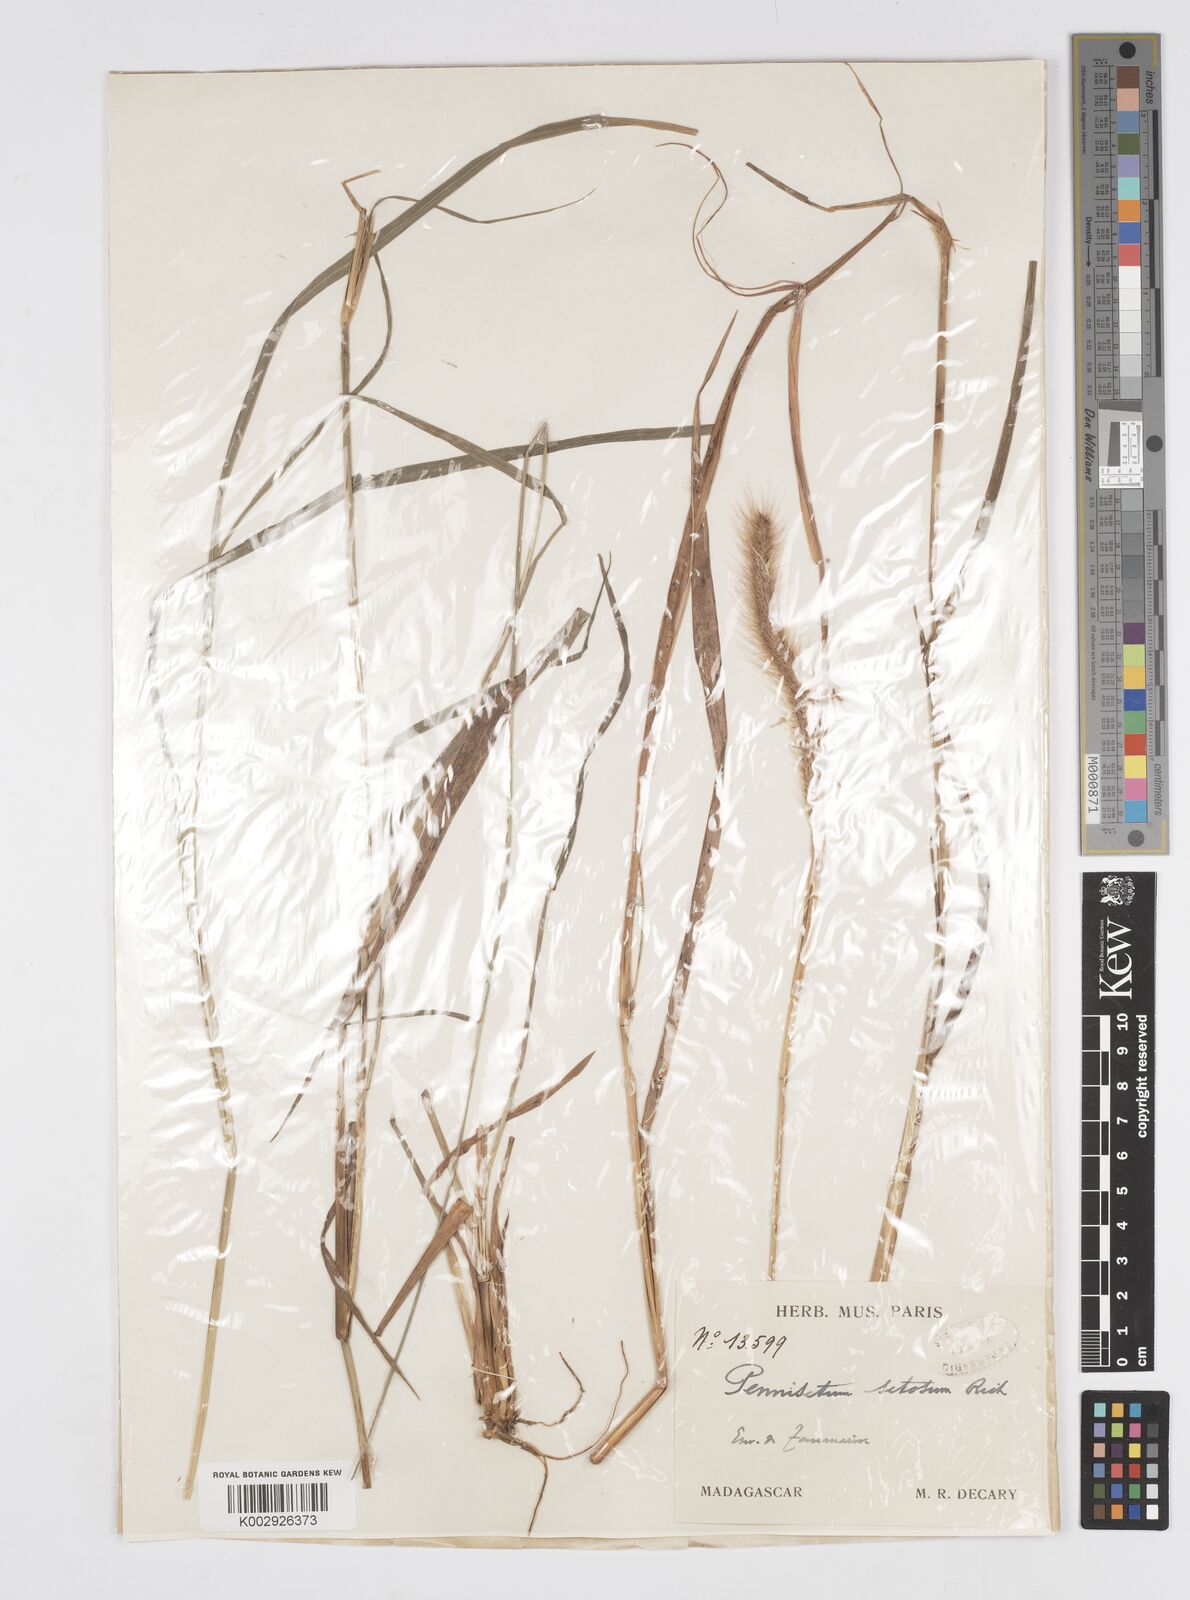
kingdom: Plantae
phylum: Tracheophyta
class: Liliopsida
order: Poales
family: Poaceae
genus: Setaria
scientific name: Setaria parviflora
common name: Knotroot bristle-grass
